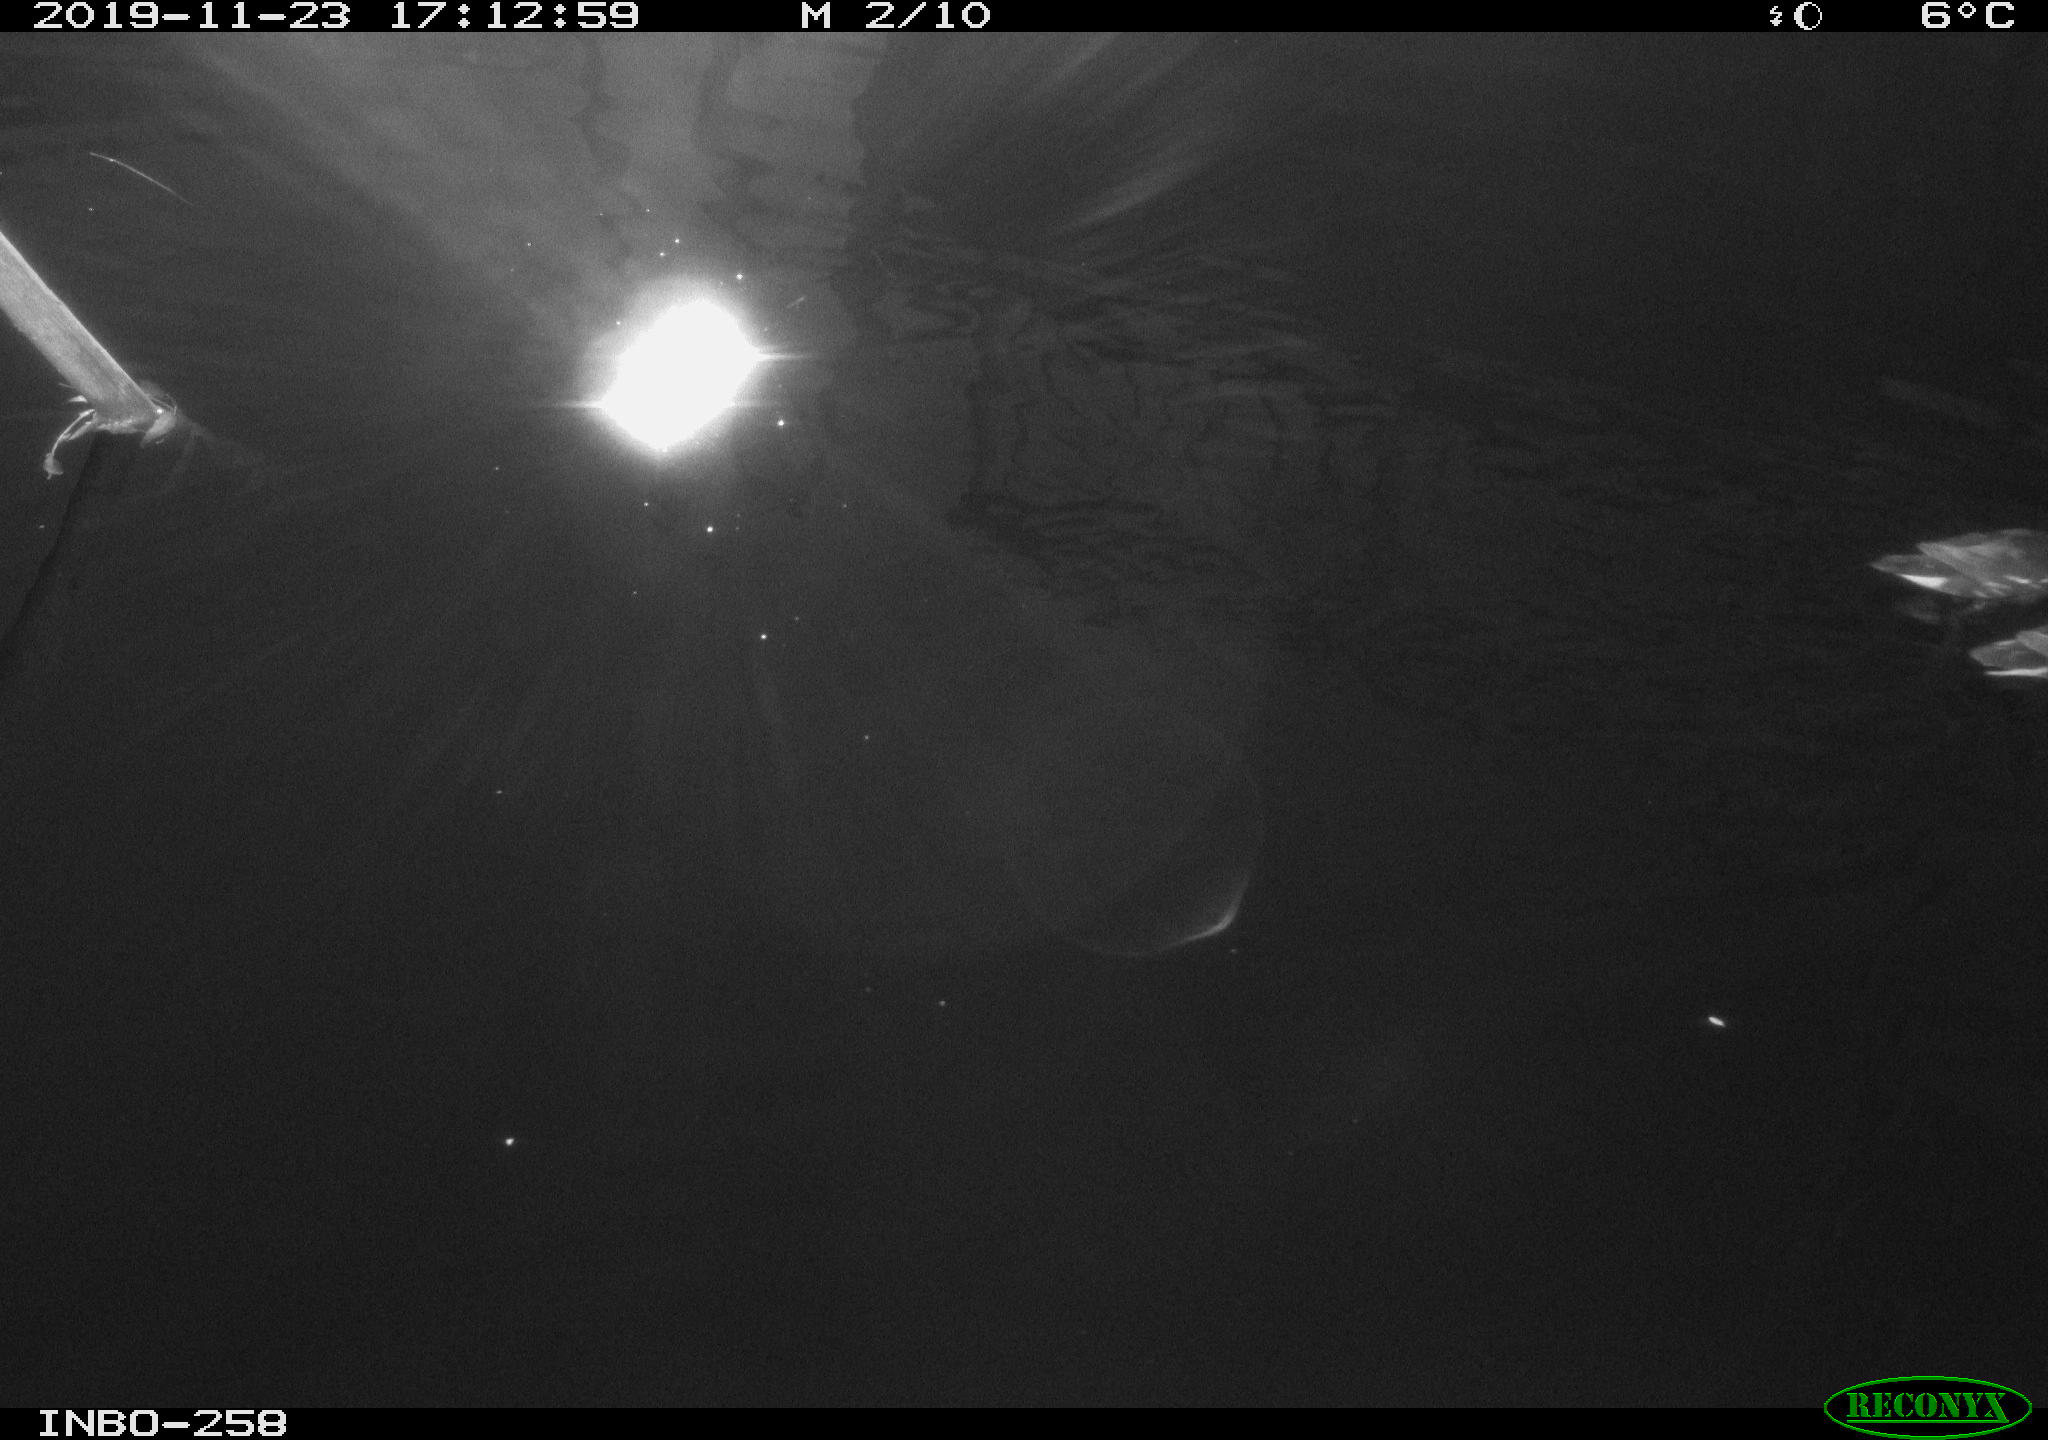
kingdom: Animalia
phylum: Chordata
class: Aves
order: Gruiformes
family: Rallidae
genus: Gallinula
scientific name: Gallinula chloropus
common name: Common moorhen
